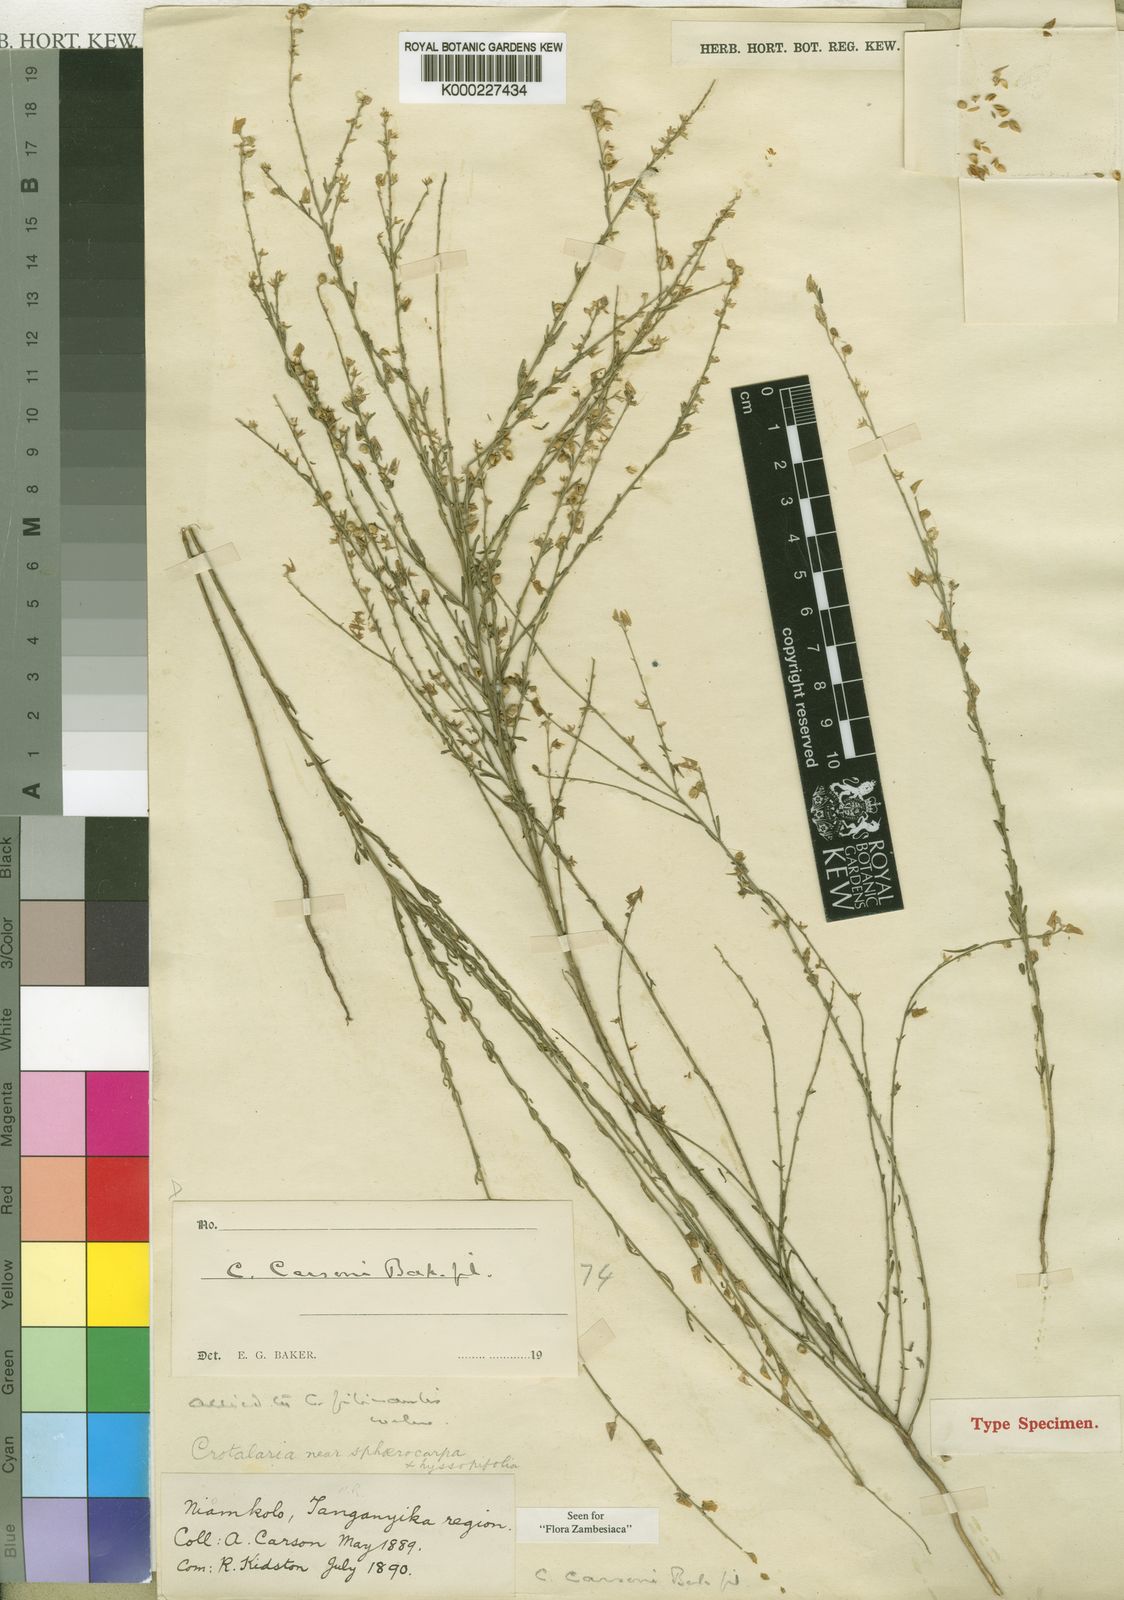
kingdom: Plantae
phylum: Tracheophyta
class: Magnoliopsida
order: Fabales
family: Fabaceae
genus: Crotalaria
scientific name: Crotalaria carsonii
